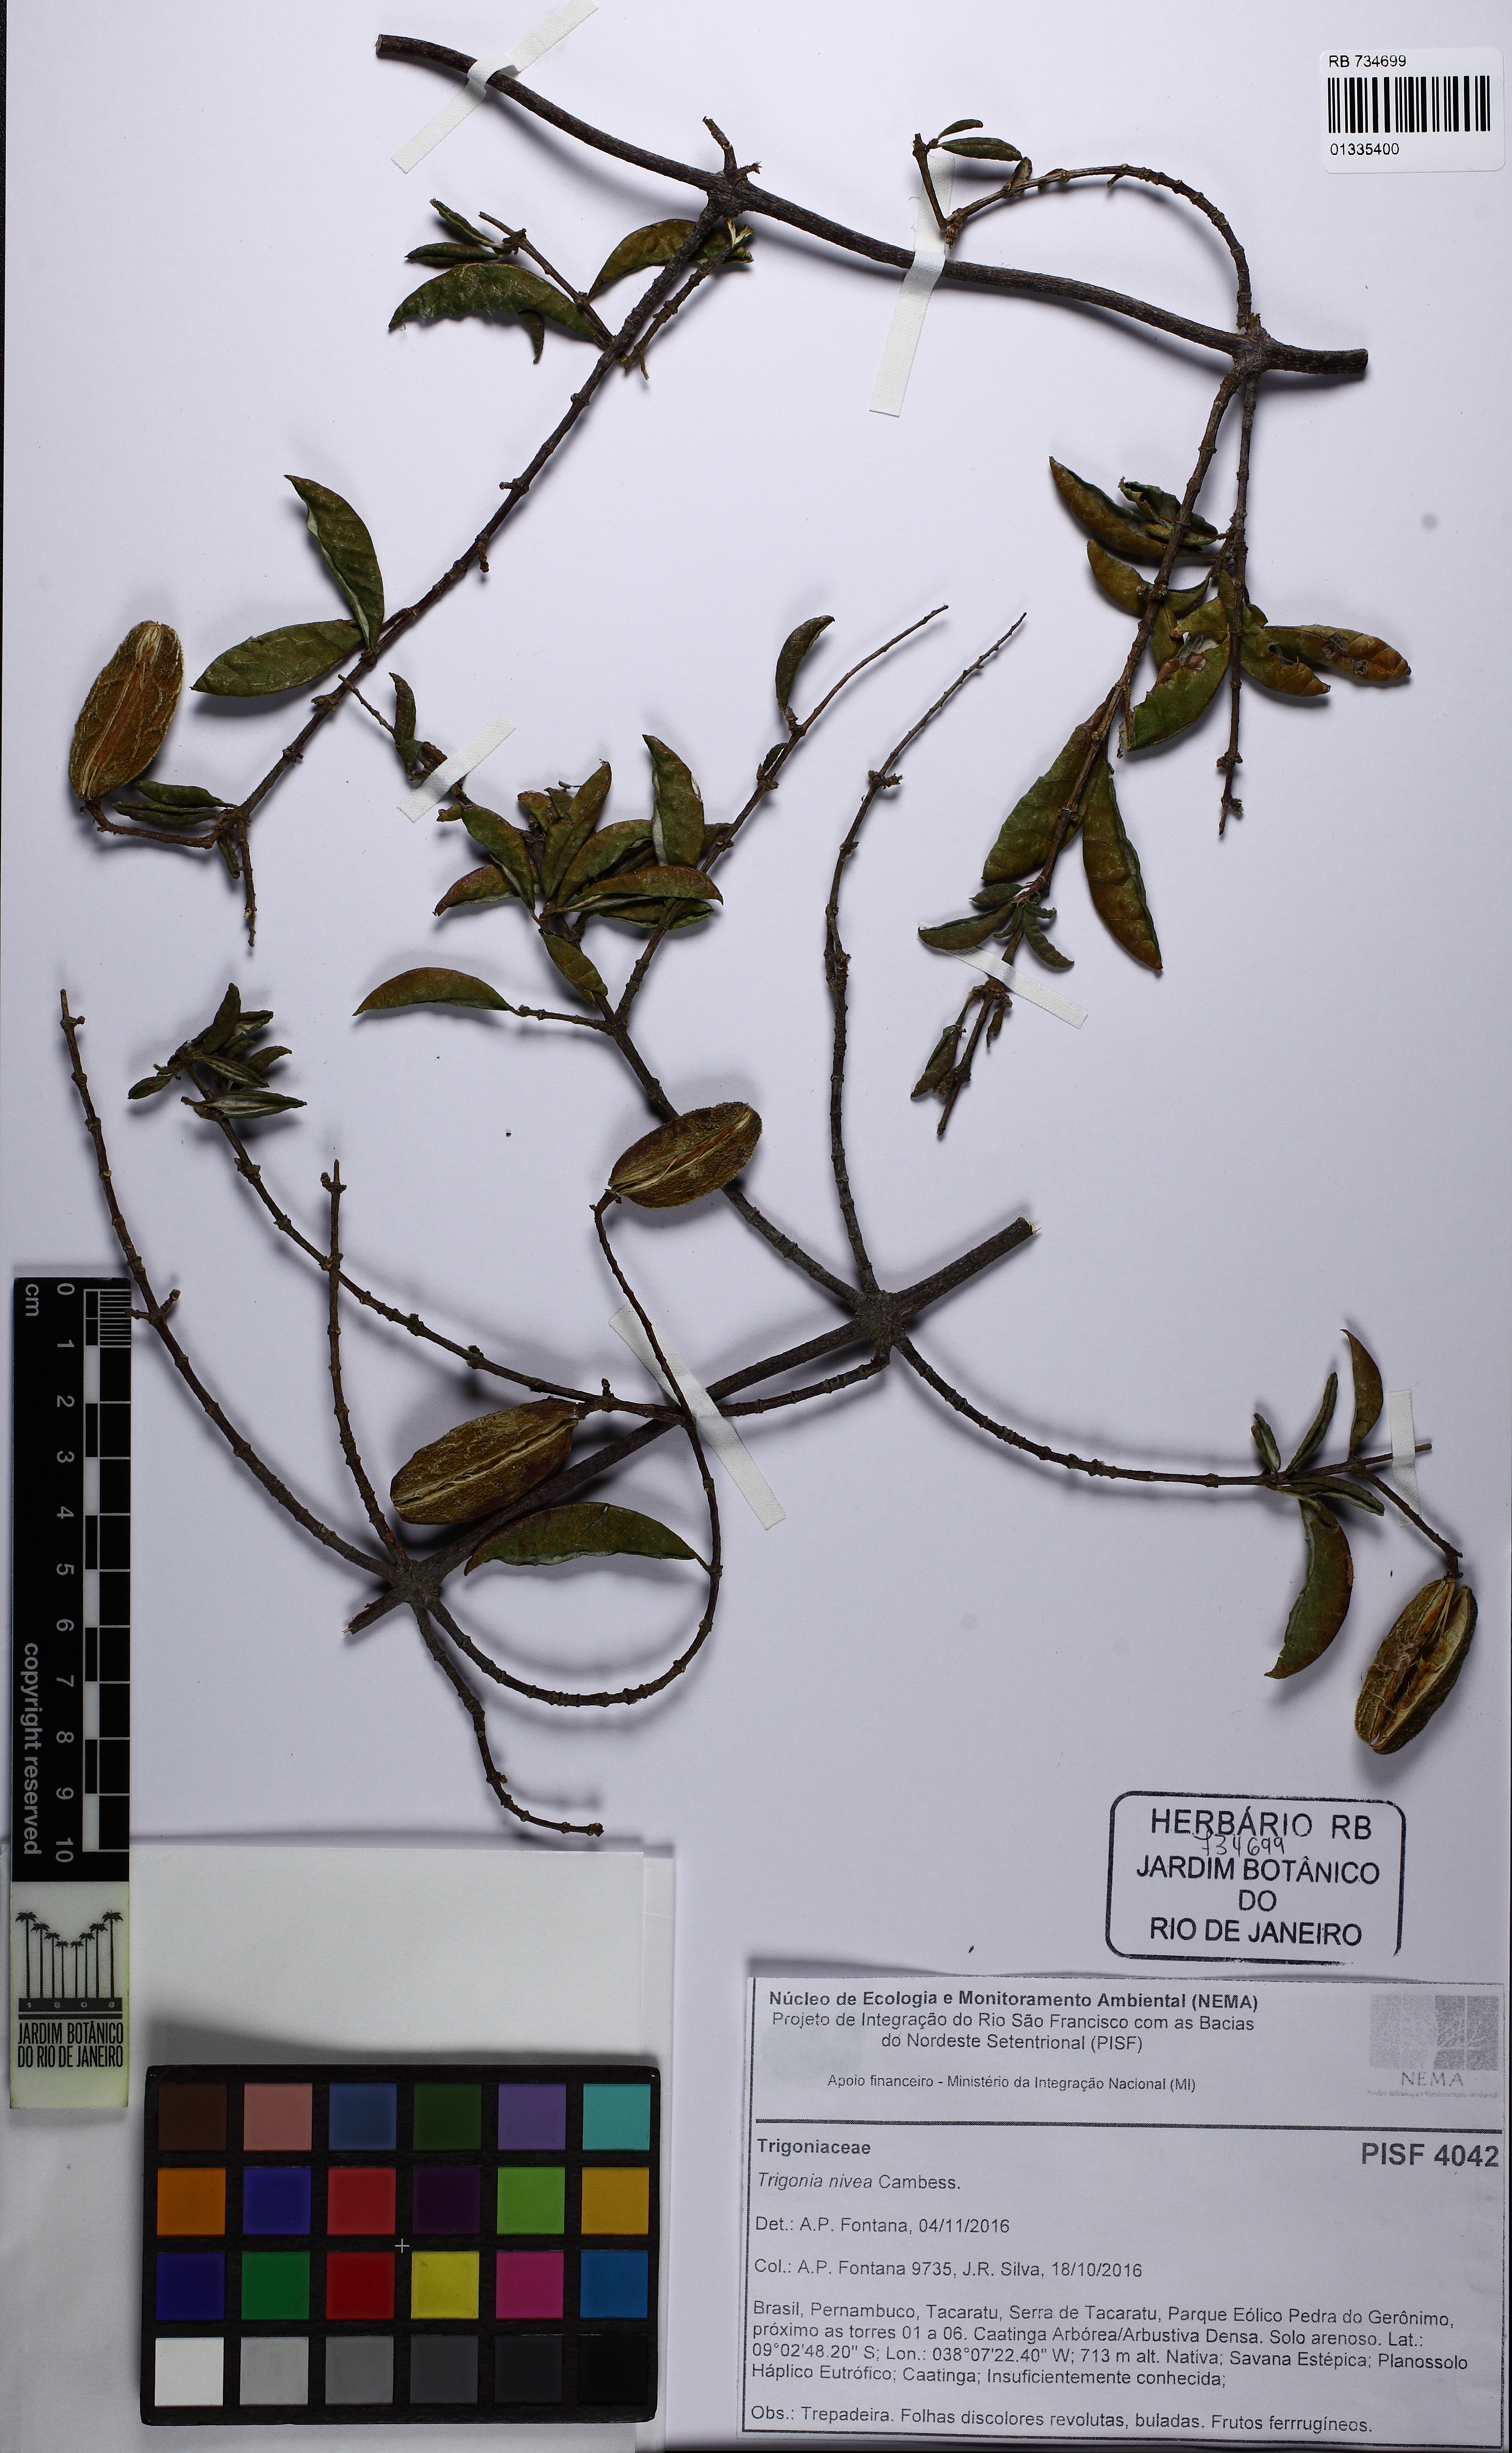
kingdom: Plantae
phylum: Tracheophyta
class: Magnoliopsida
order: Malpighiales
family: Trigoniaceae
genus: Trigonia
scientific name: Trigonia nivea
